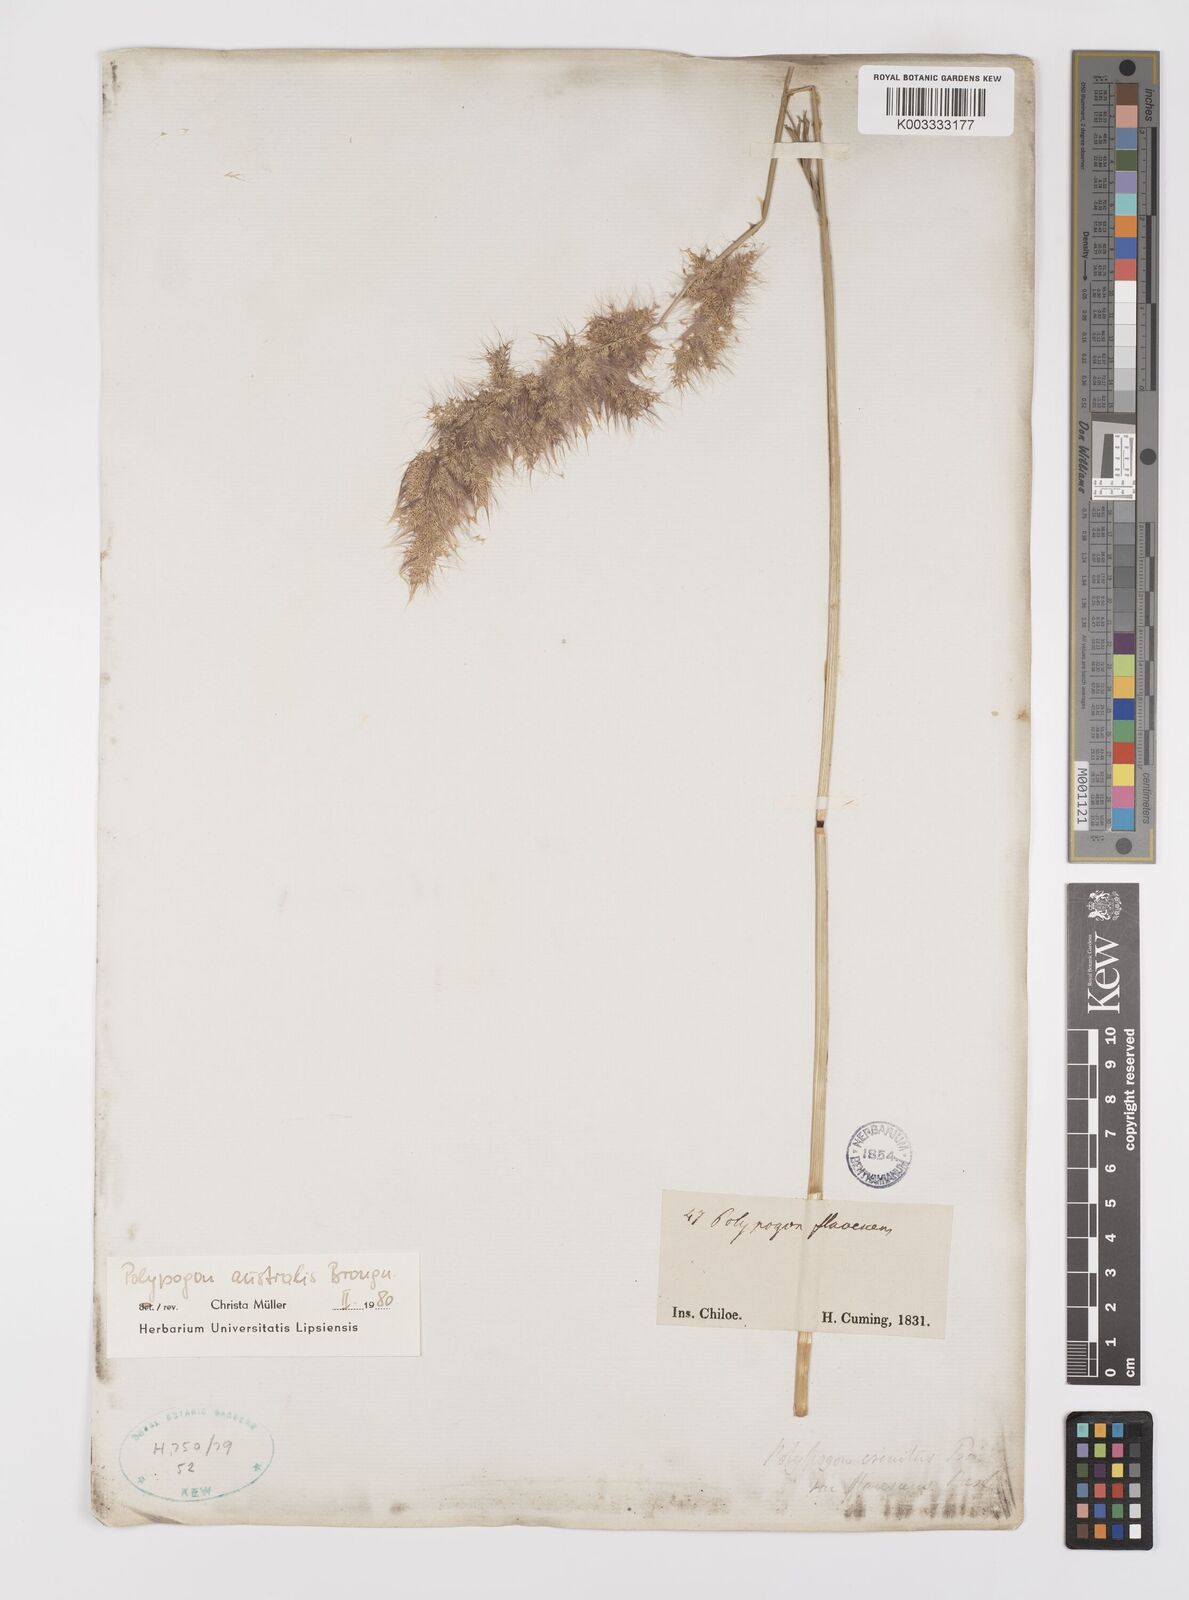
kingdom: Plantae
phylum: Tracheophyta
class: Liliopsida
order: Poales
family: Poaceae
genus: Polypogon
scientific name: Polypogon australis
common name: Chilean rabbitsfoot grass
